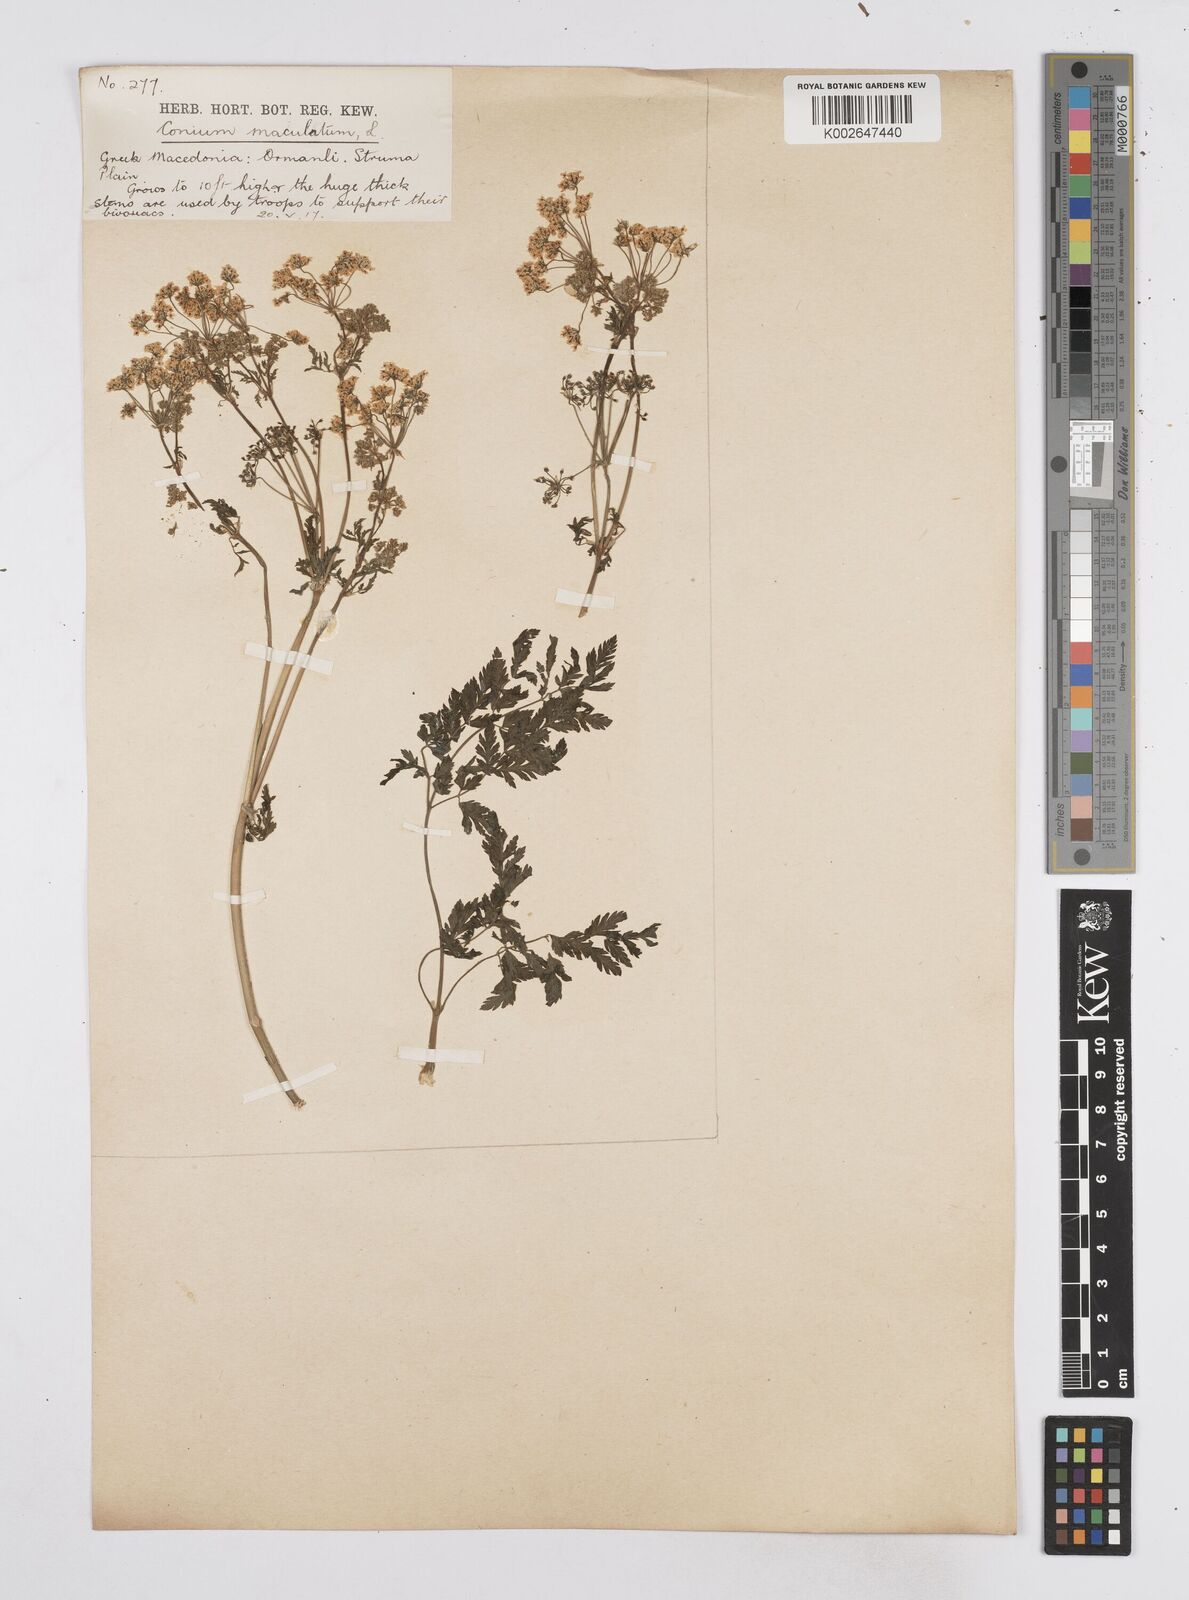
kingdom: Plantae
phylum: Tracheophyta
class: Magnoliopsida
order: Apiales
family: Apiaceae
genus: Conium
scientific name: Conium maculatum
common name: Hemlock
